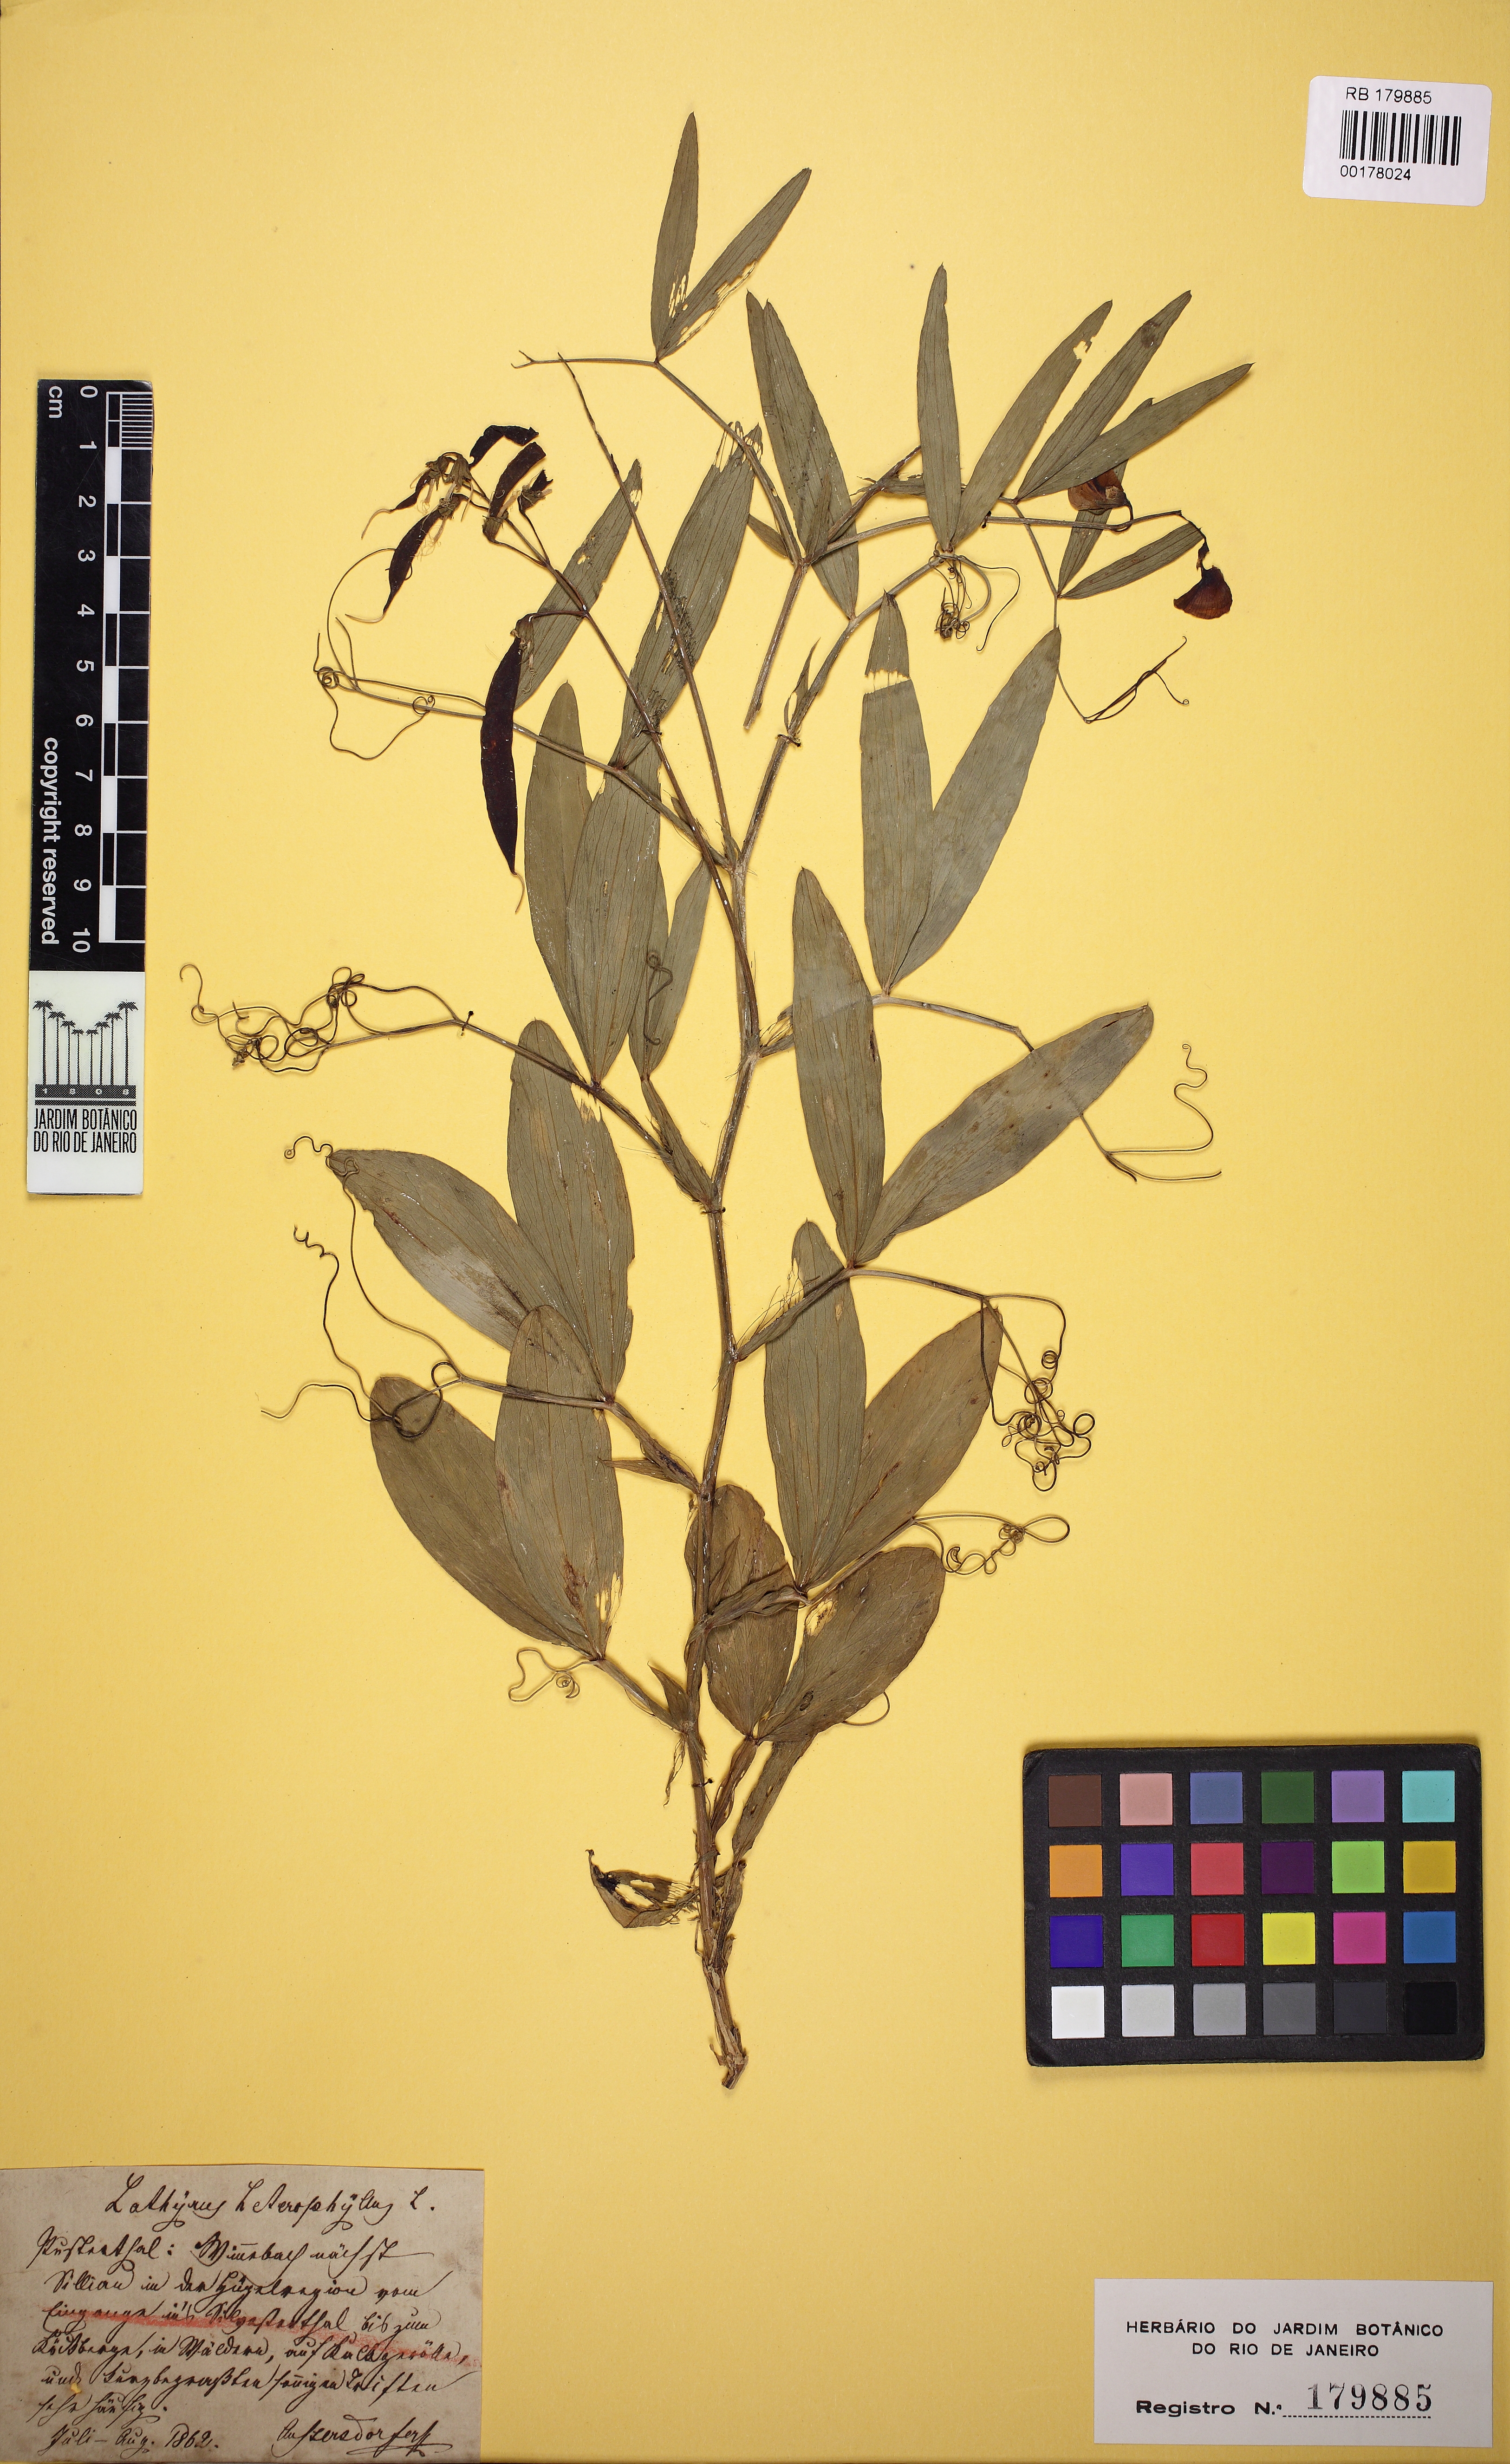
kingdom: Plantae
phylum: Tracheophyta
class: Magnoliopsida
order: Fabales
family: Fabaceae
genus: Lathyrus
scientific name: Lathyrus heterophyllus
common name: Norfolk everlasting-pea
